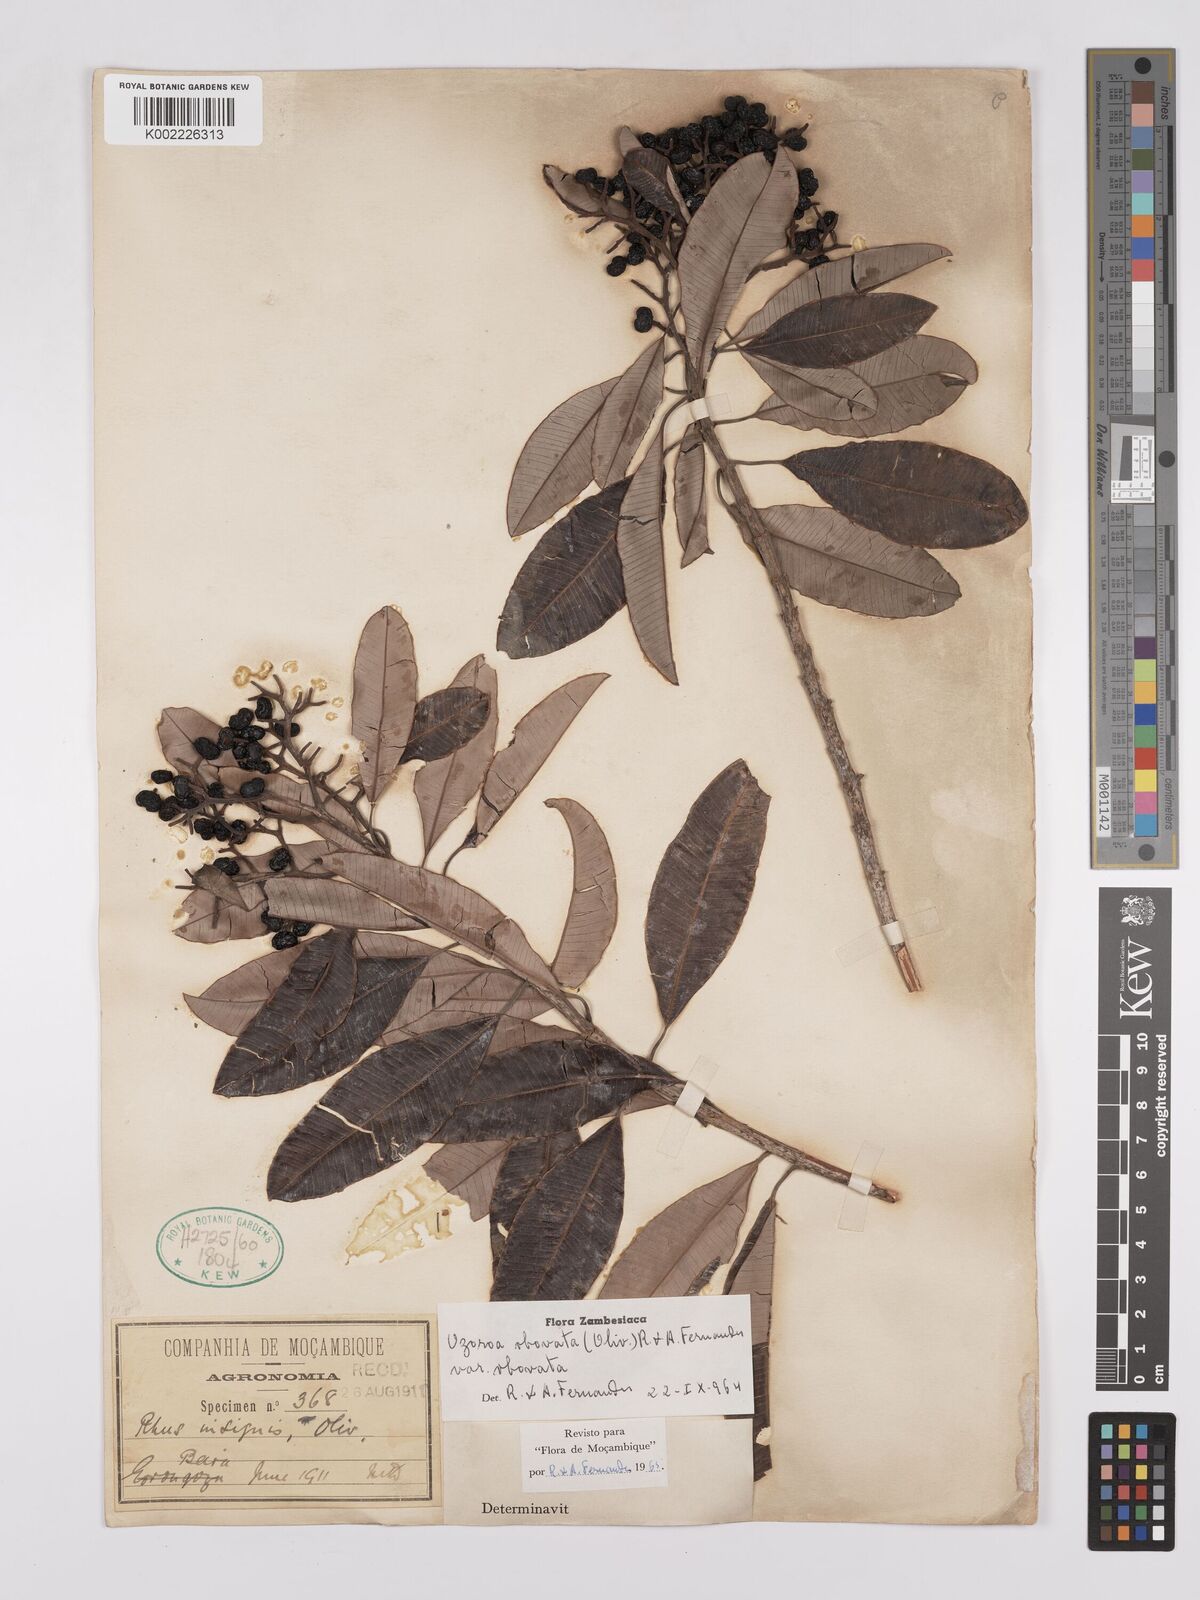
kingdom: Plantae
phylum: Tracheophyta
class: Magnoliopsida
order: Sapindales
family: Anacardiaceae
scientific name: Anacardiaceae
